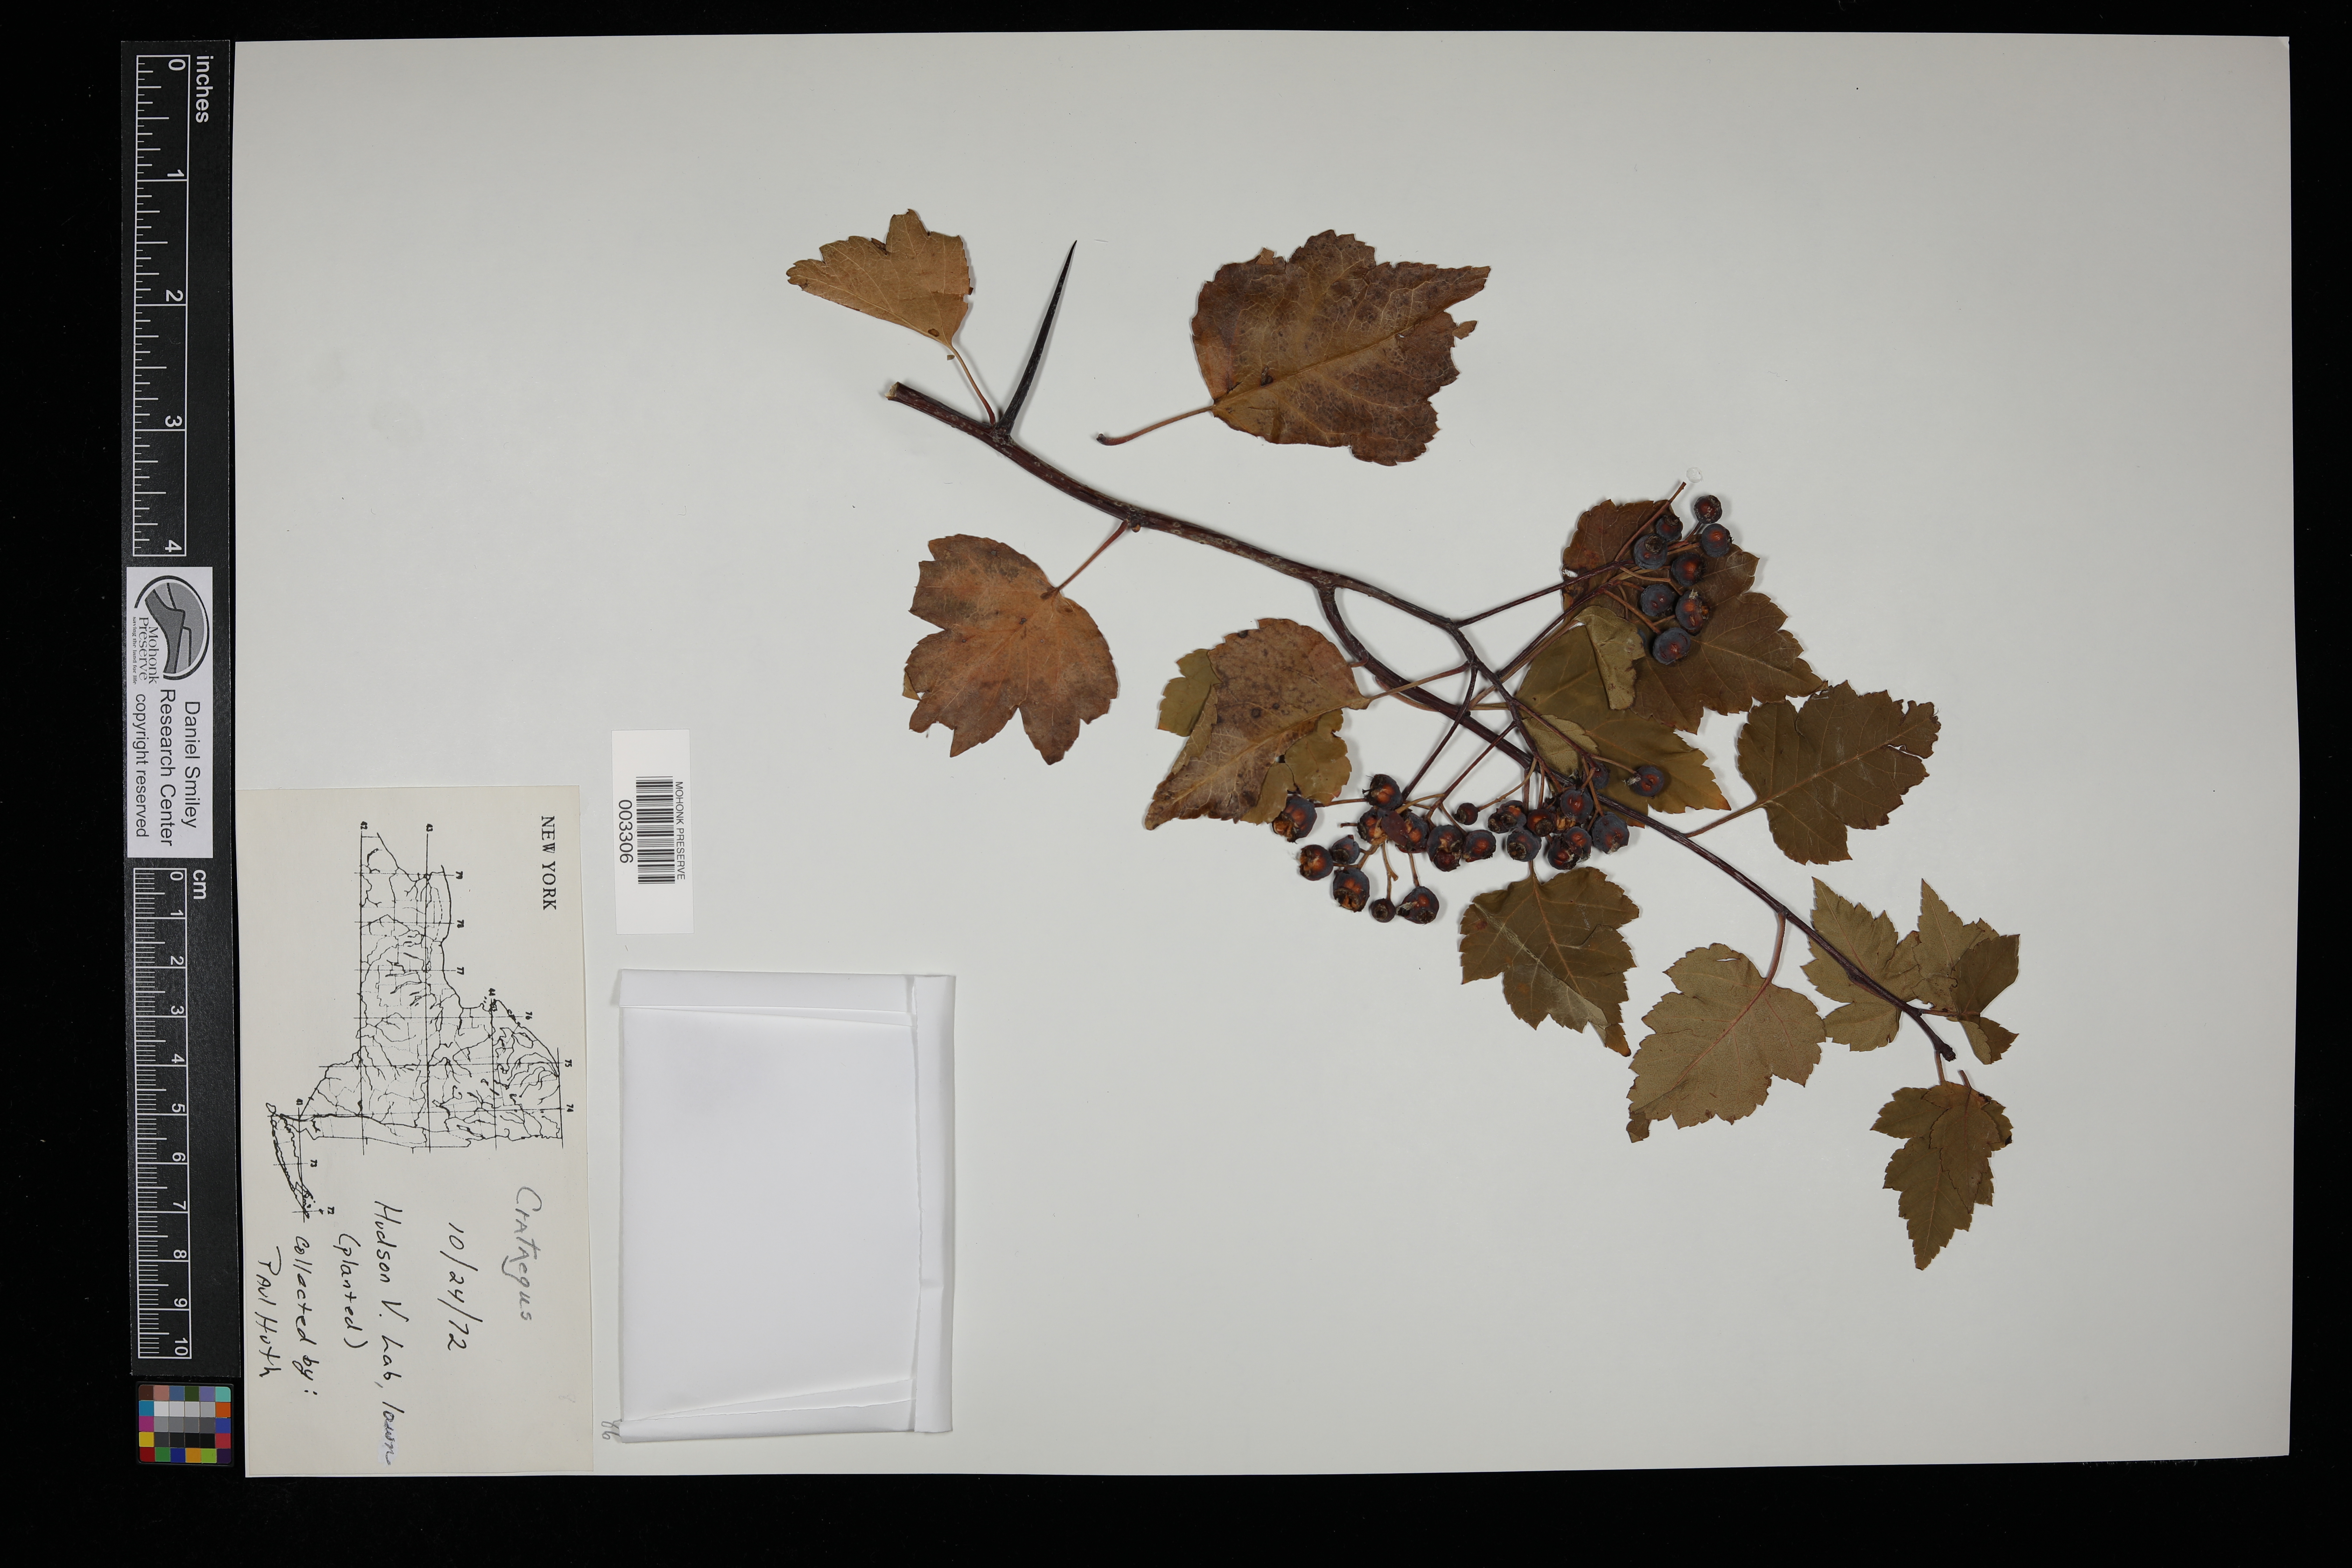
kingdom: Plantae
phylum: Tracheophyta
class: Magnoliopsida
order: Rosales
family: Rosaceae
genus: Crataegus
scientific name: Crataegus
